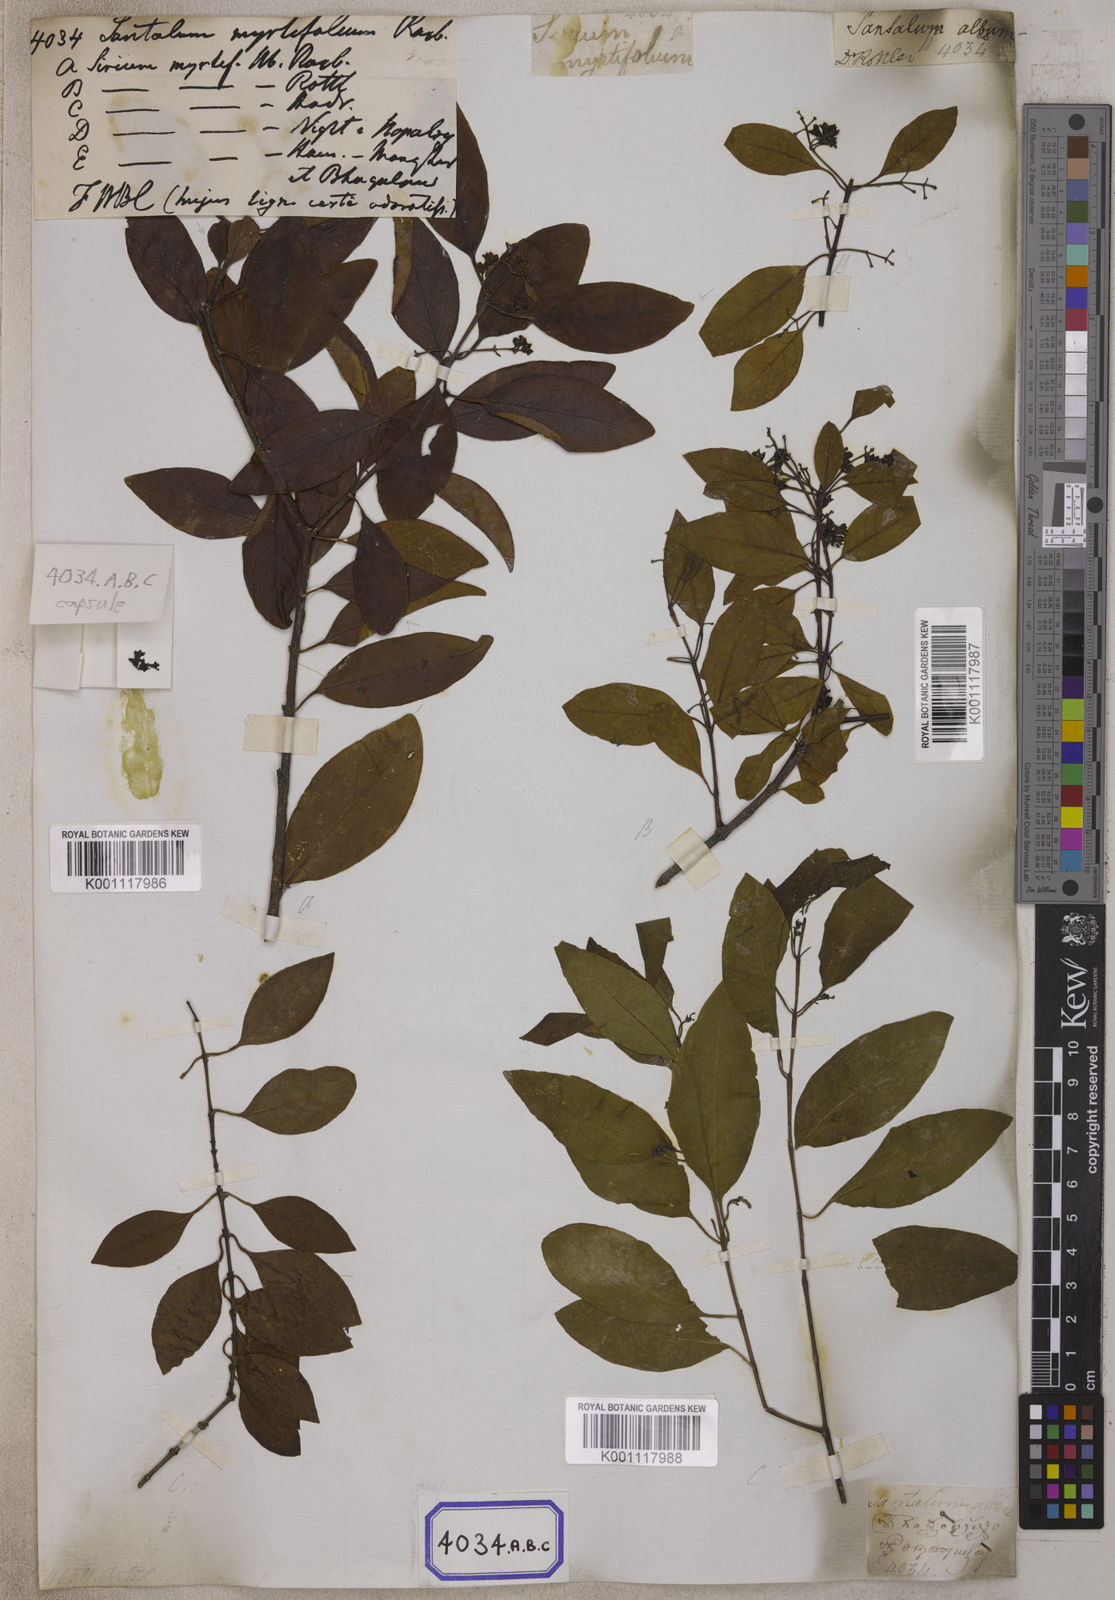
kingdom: Plantae
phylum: Tracheophyta
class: Magnoliopsida
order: Santalales
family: Santalaceae
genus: Santalum
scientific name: Santalum album
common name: Indian sandalwood
